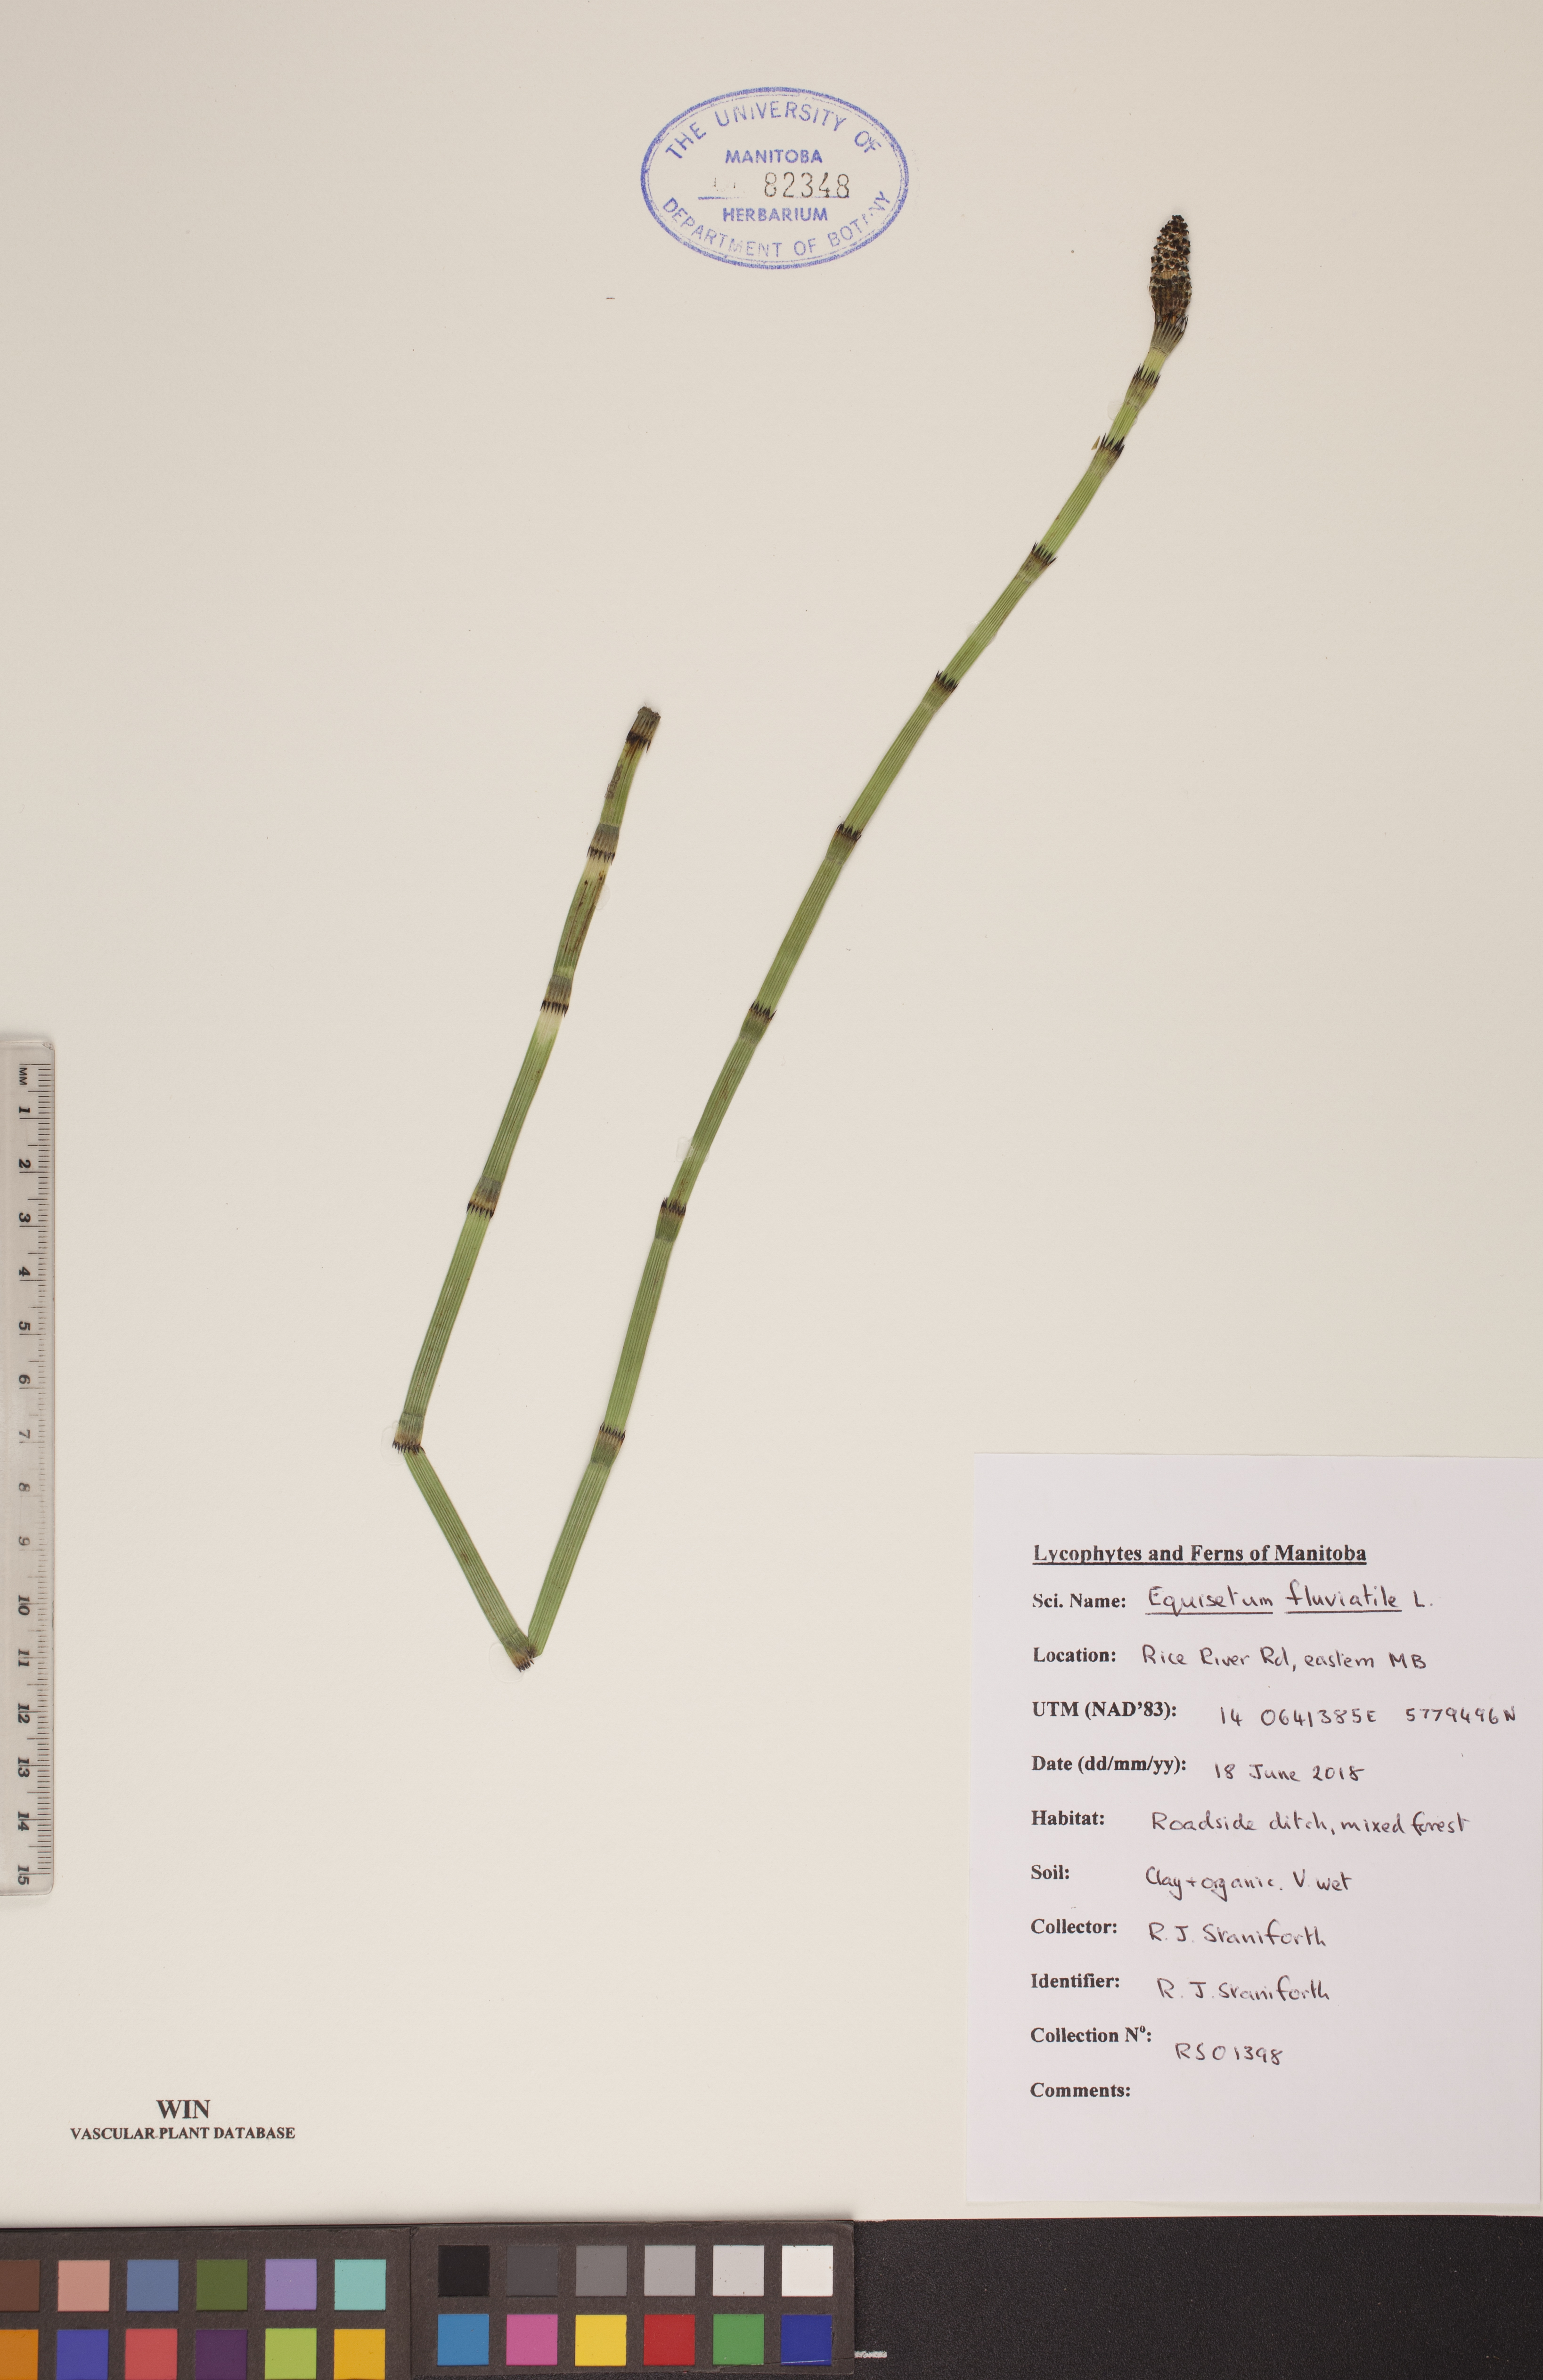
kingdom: Plantae
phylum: Tracheophyta
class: Polypodiopsida
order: Equisetales
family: Equisetaceae
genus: Equisetum
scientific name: Equisetum fluviatile
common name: Water horsetail
